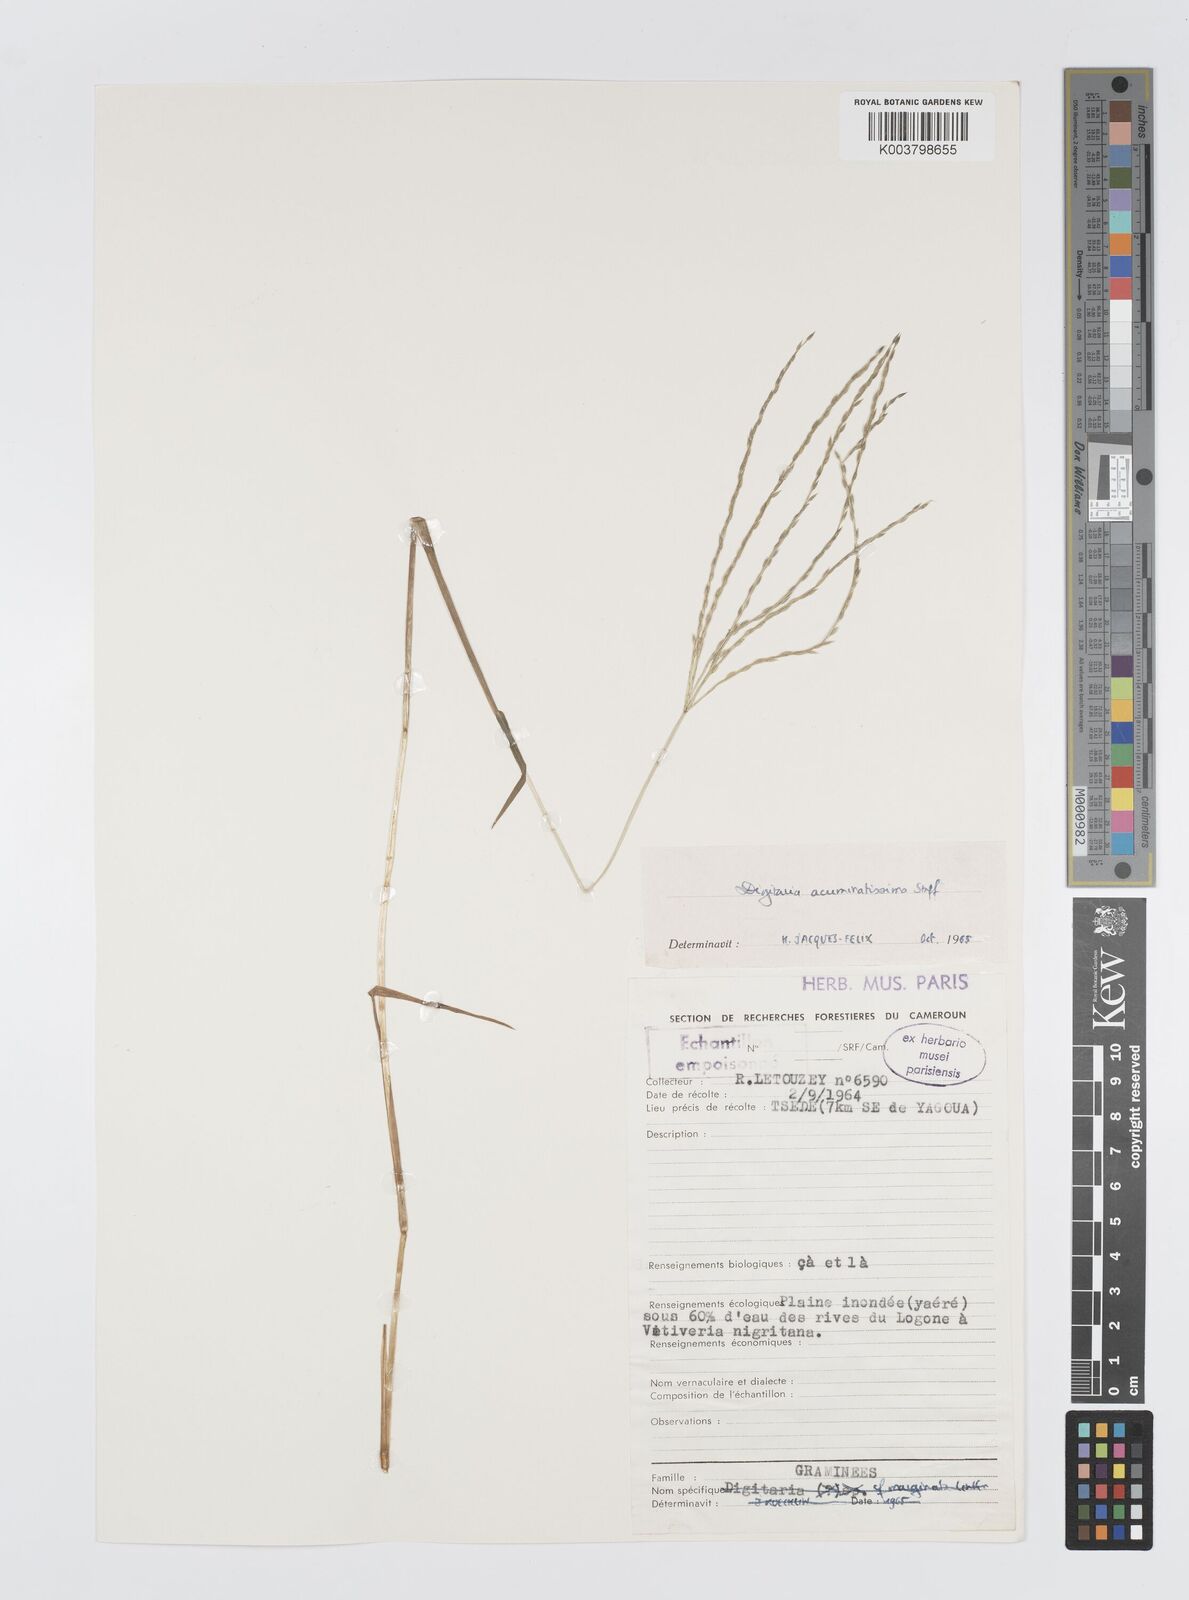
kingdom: Plantae
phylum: Tracheophyta
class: Liliopsida
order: Poales
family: Poaceae
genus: Digitaria
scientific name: Digitaria acuminatissima
